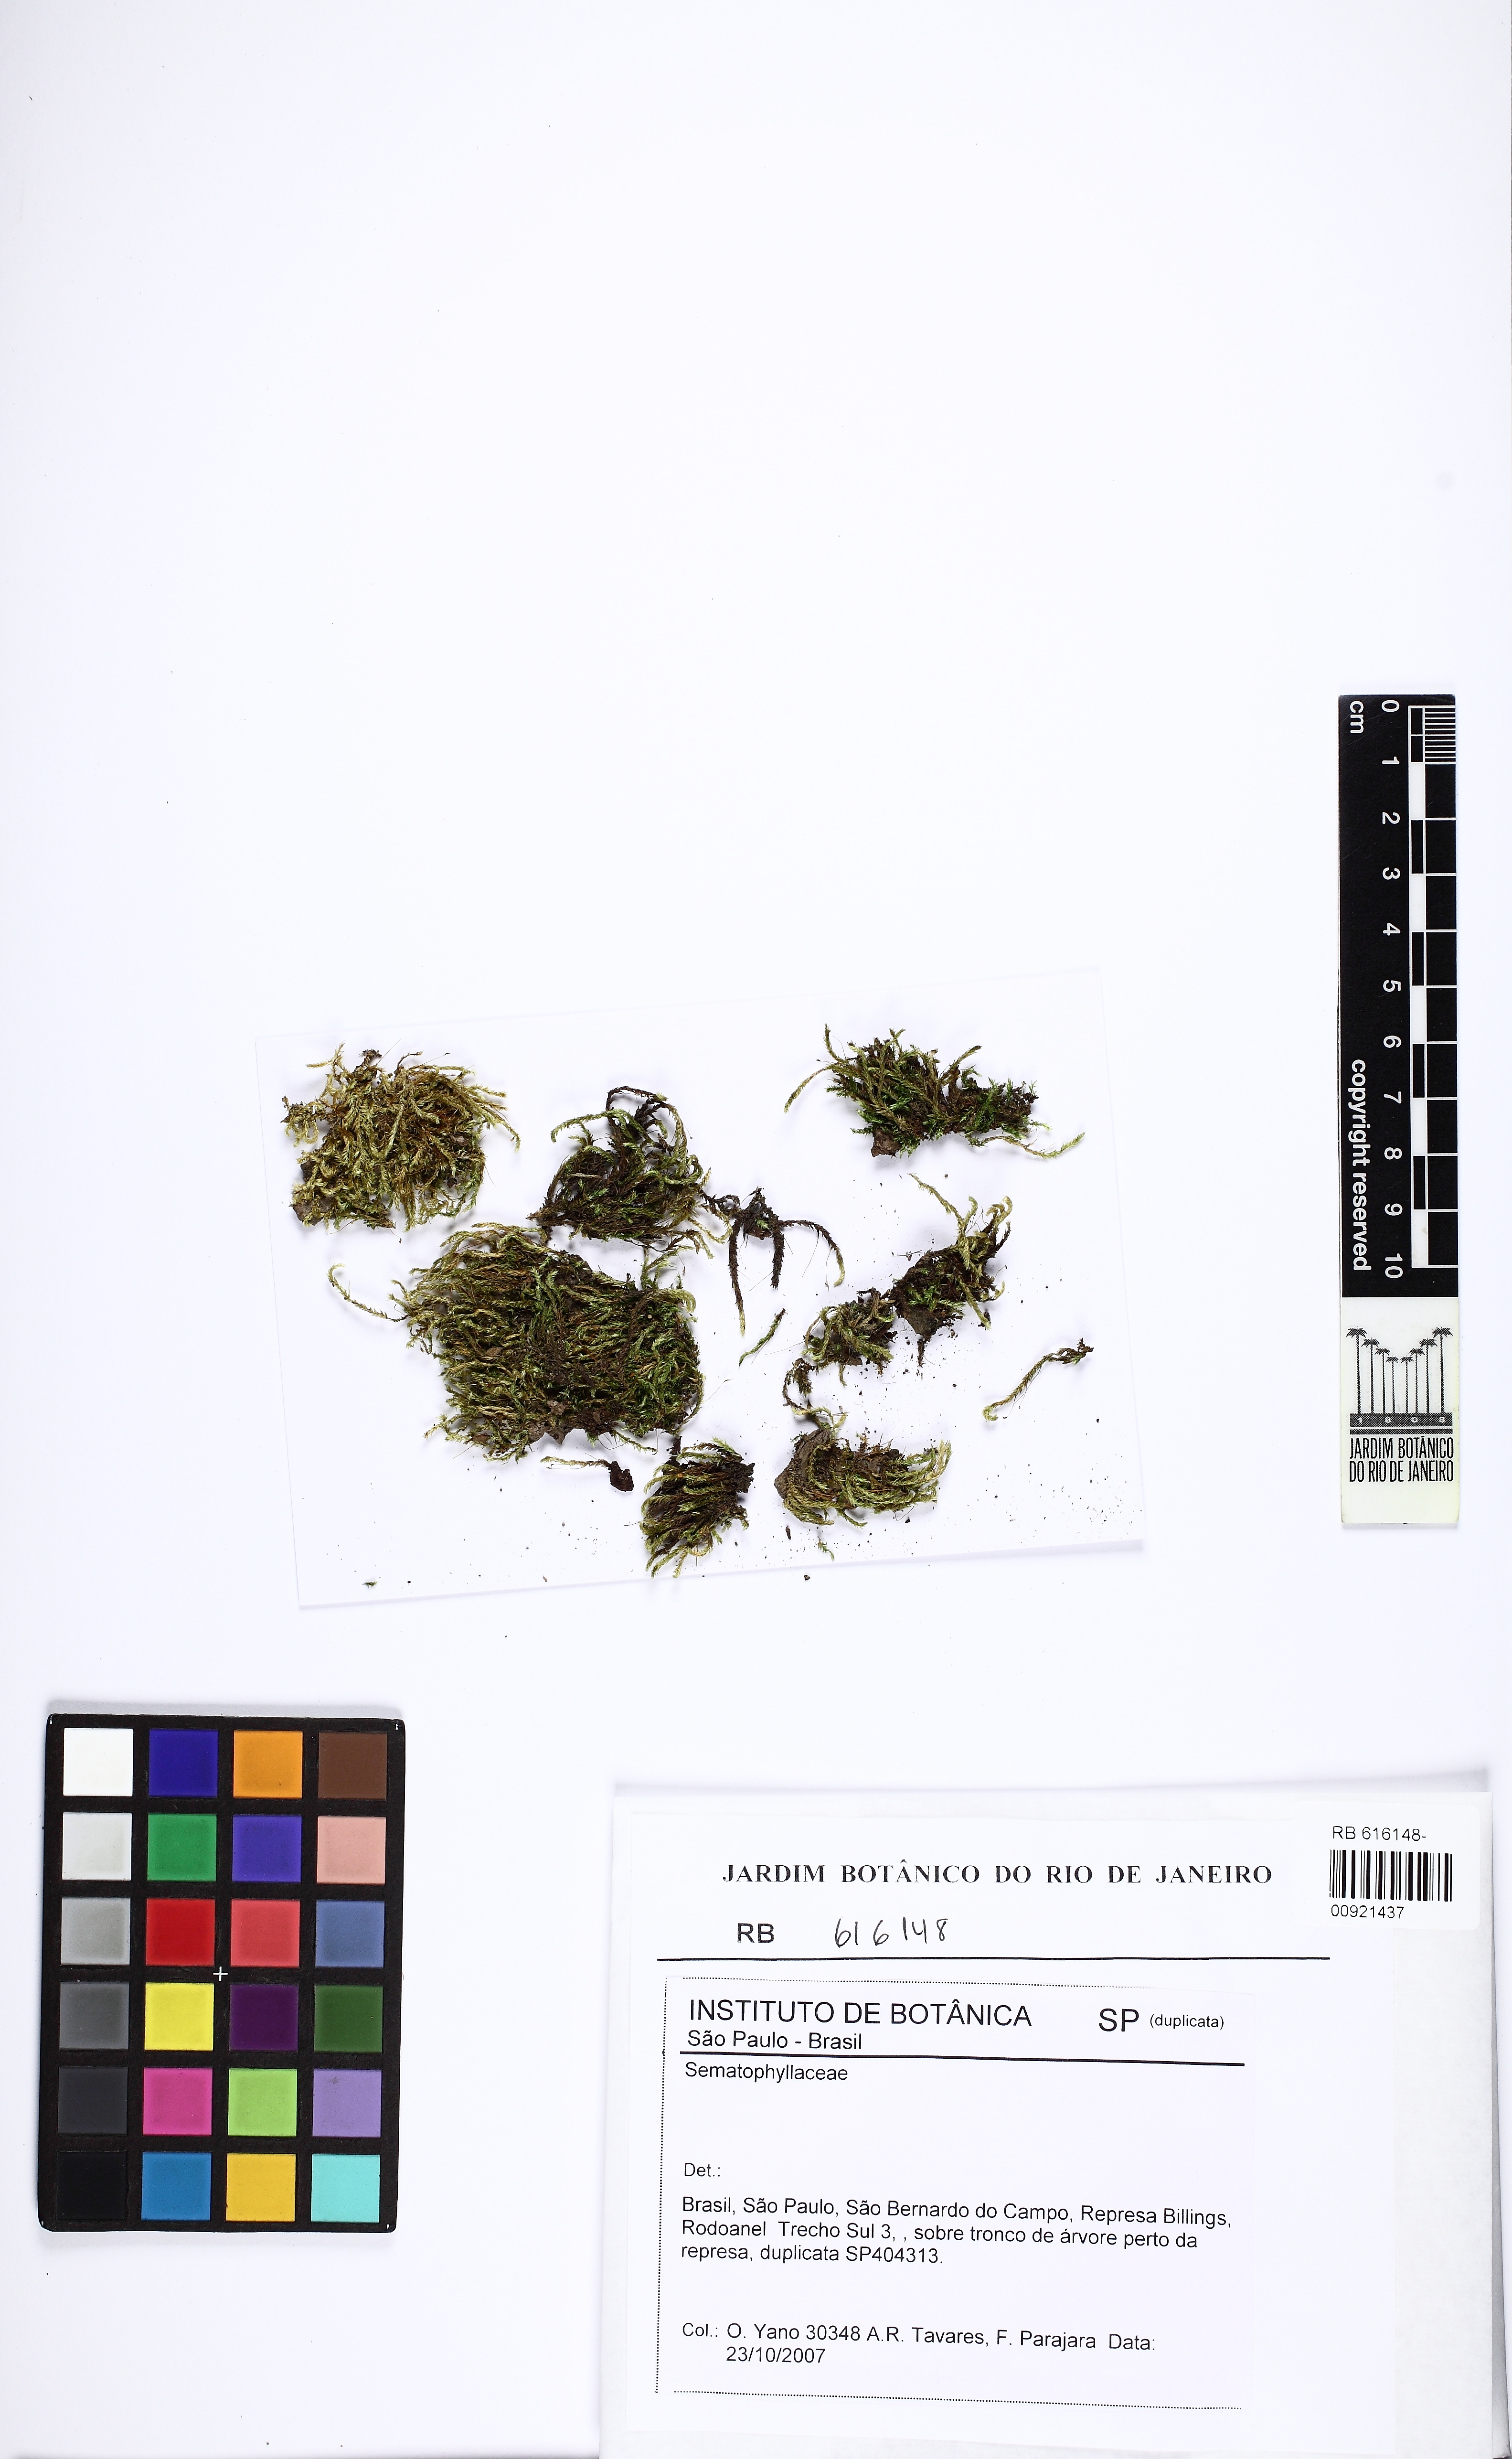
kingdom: Plantae
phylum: Bryophyta
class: Bryopsida
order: Hypnales
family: Sematophyllaceae
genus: Trichosteleum
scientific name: Trichosteleum fluviale
